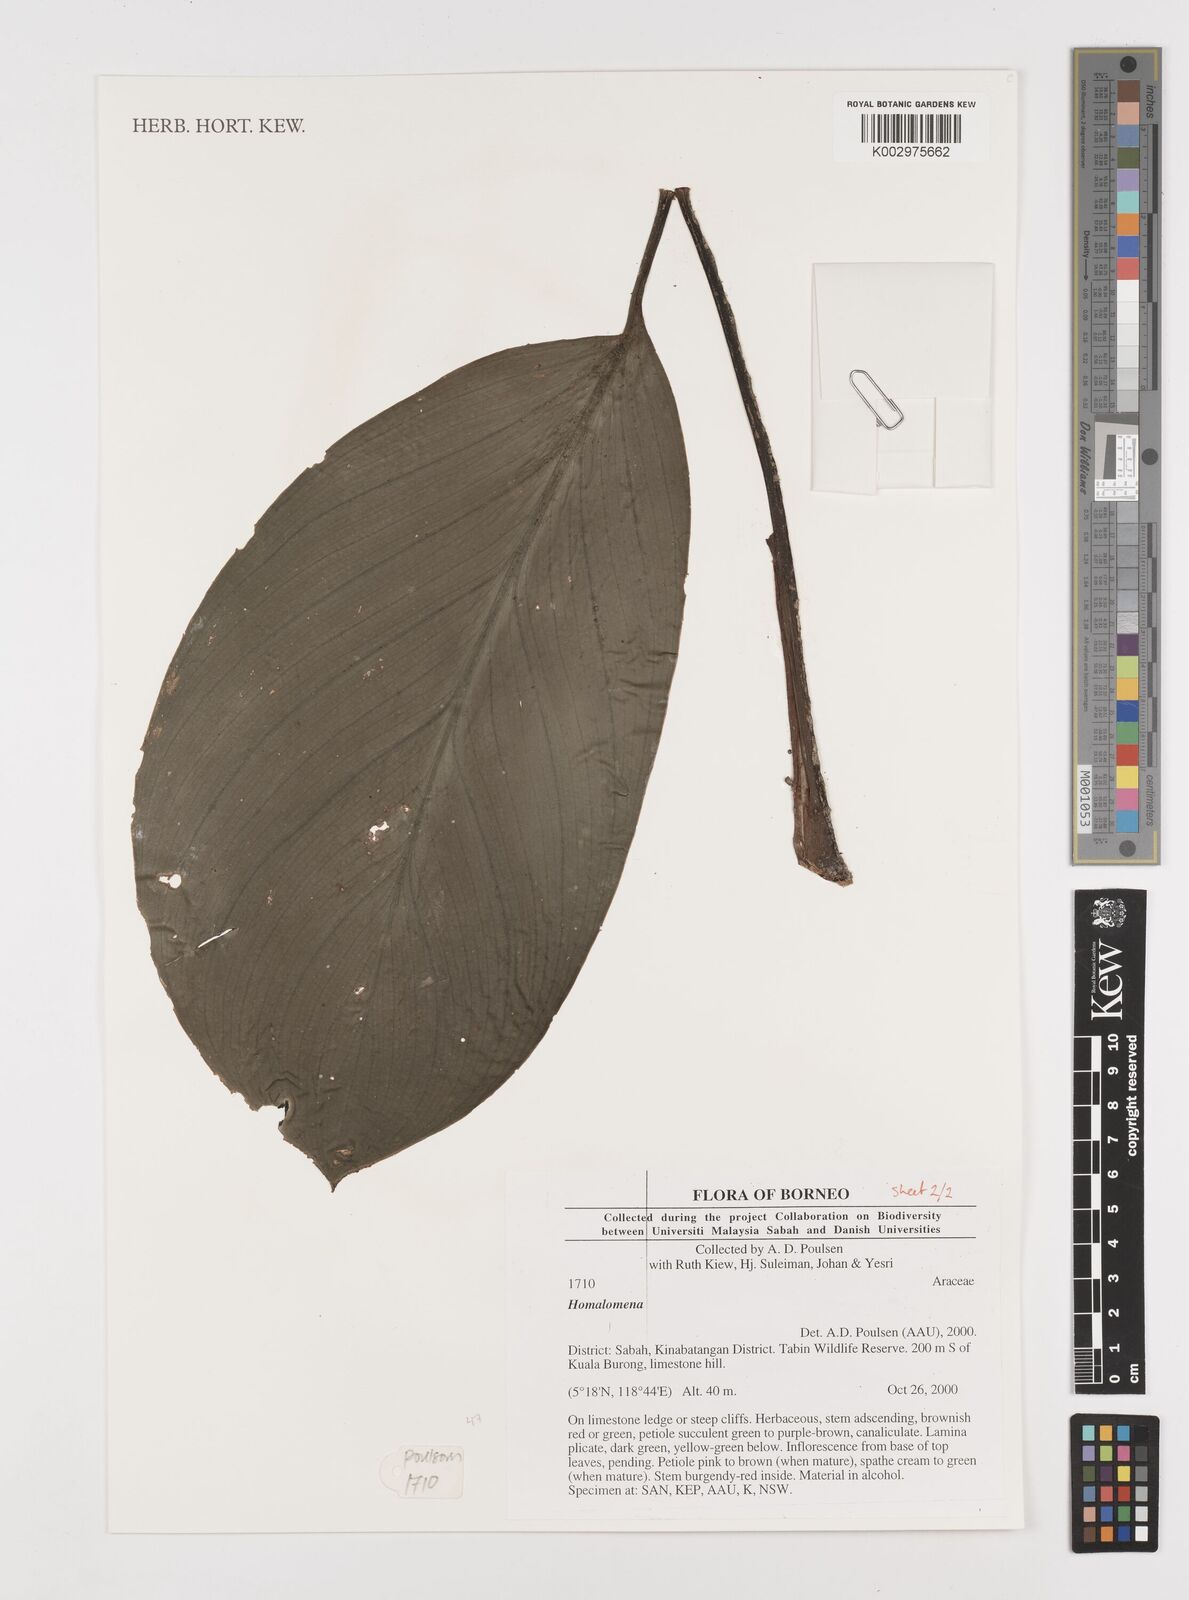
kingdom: Plantae
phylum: Tracheophyta
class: Liliopsida
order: Alismatales
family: Araceae
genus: Homalomena
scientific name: Homalomena
